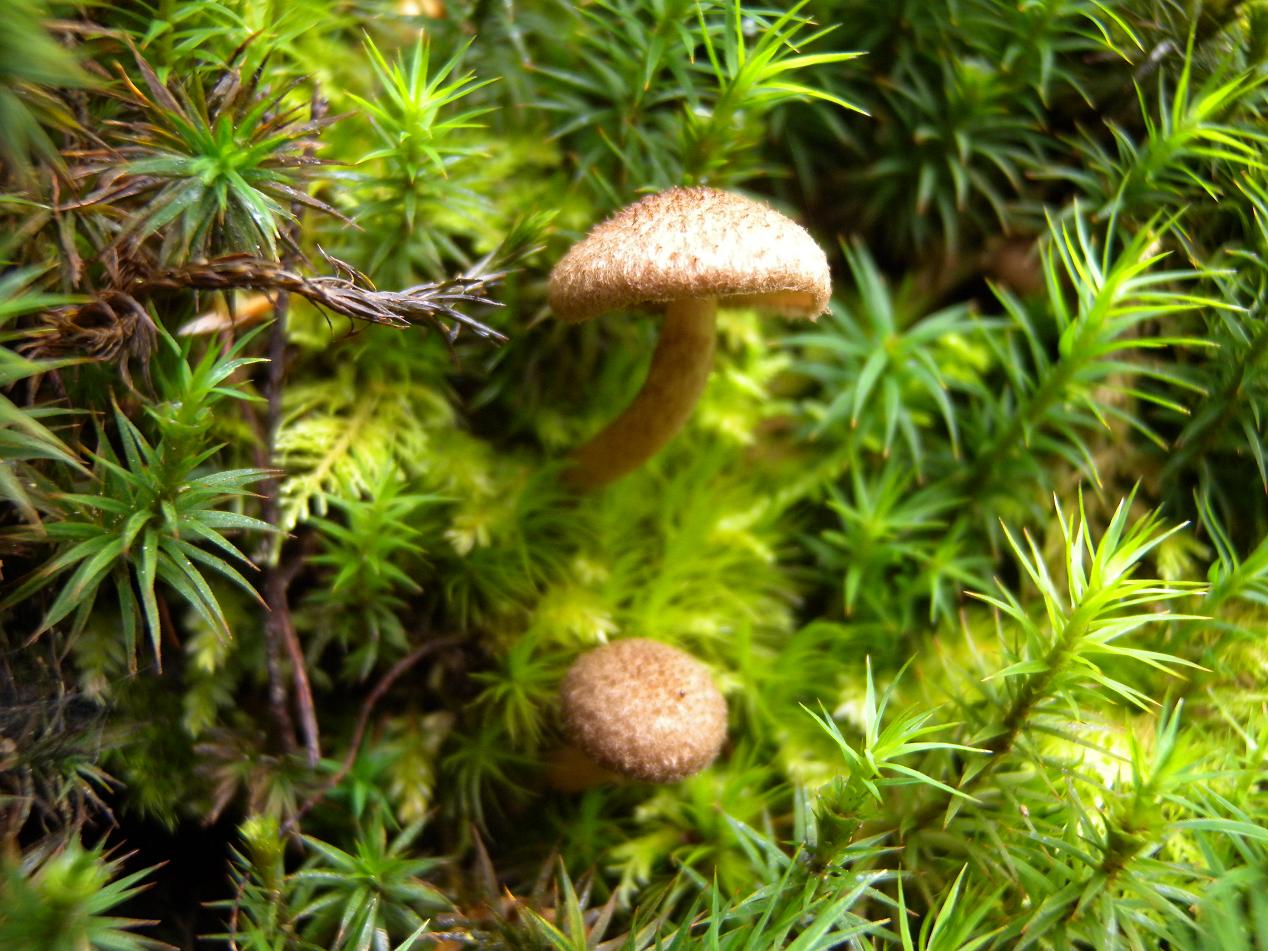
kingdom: Fungi
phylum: Basidiomycota
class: Agaricomycetes
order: Agaricales
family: Inocybaceae
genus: Inocybe
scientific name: Inocybe lanuginosa
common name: uldskællet trævlhat
